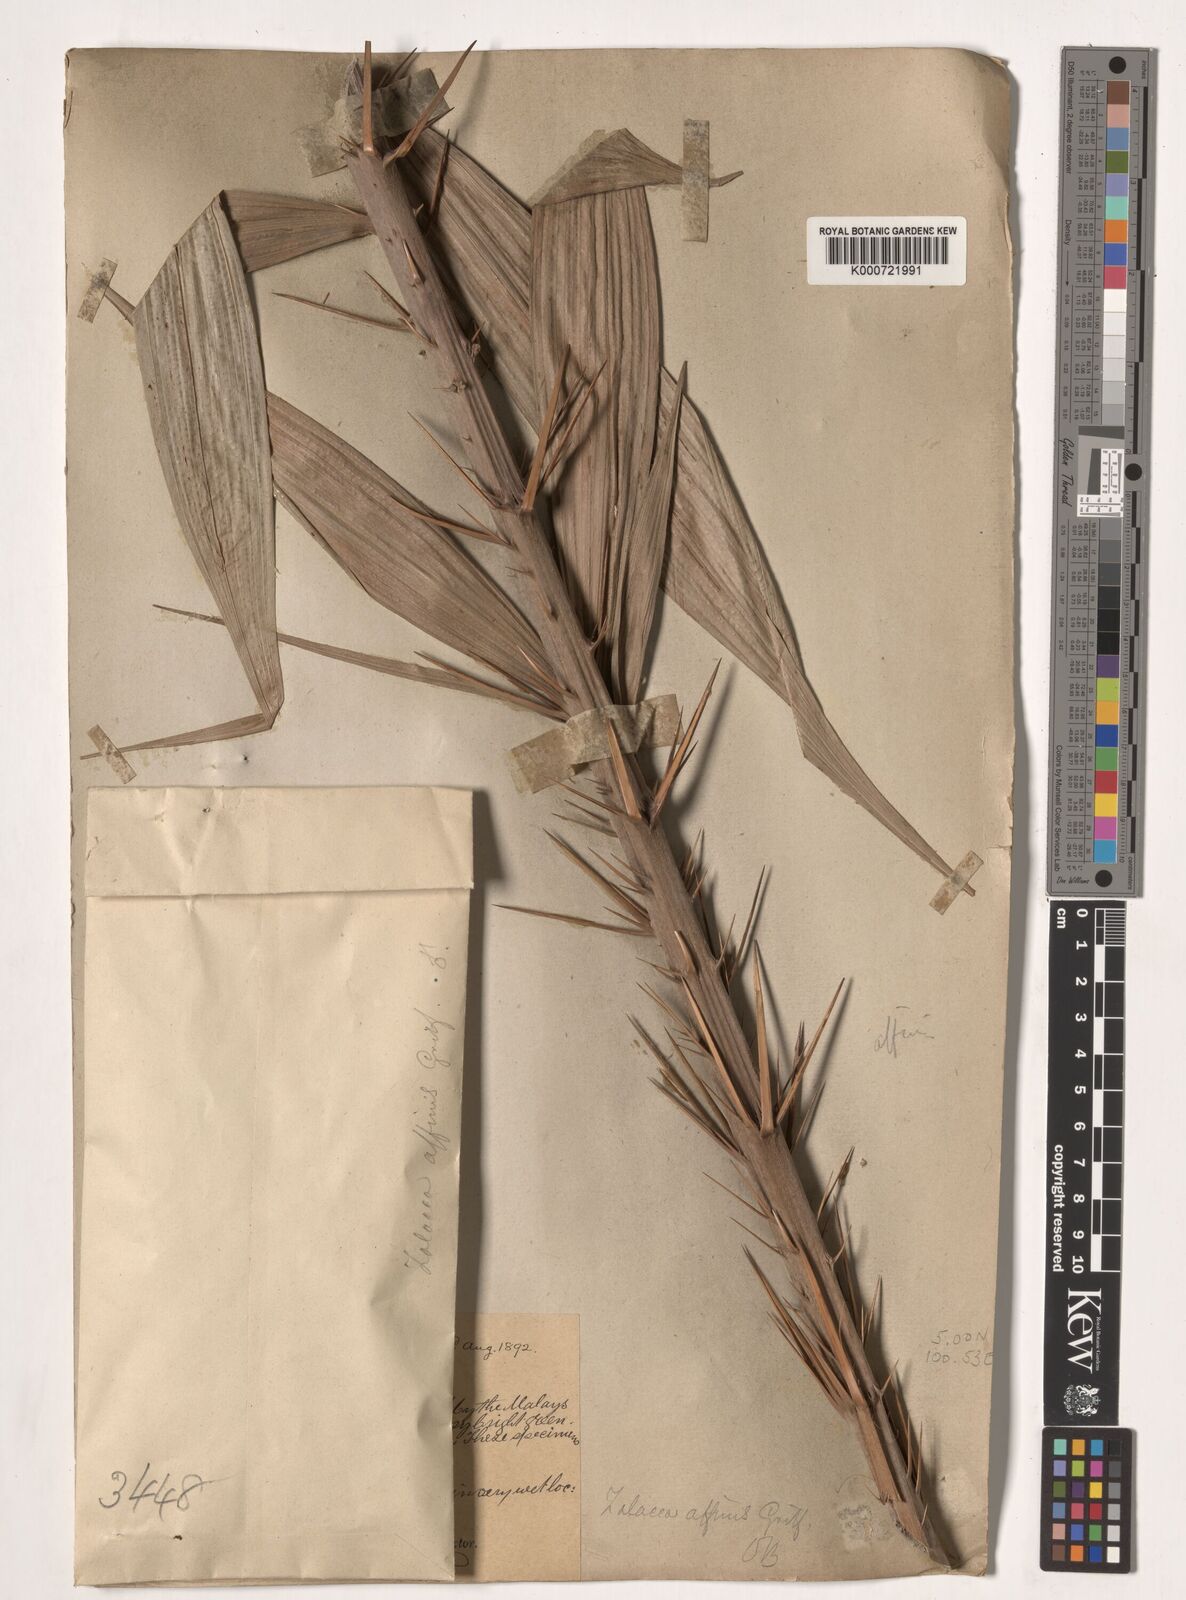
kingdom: Plantae
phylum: Tracheophyta
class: Liliopsida
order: Arecales
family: Arecaceae
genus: Salacca
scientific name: Salacca affinis
